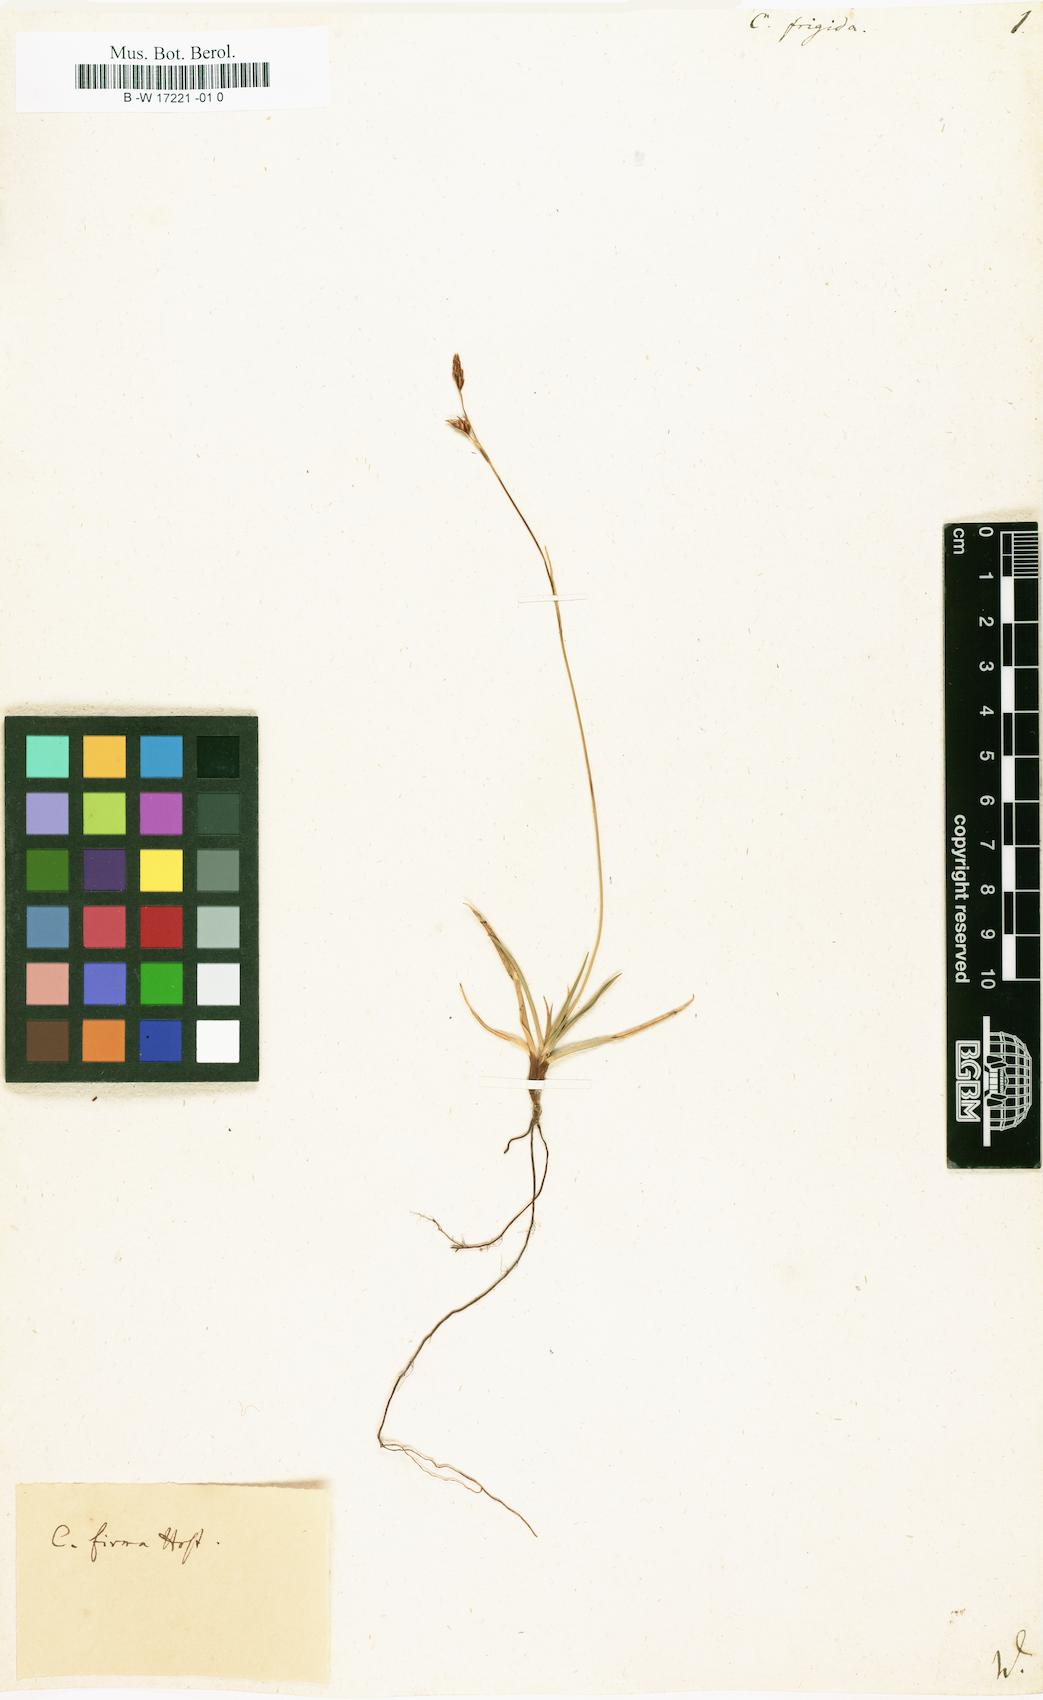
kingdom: Plantae
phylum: Tracheophyta
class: Liliopsida
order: Poales
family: Cyperaceae
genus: Carex
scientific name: Carex frigida
